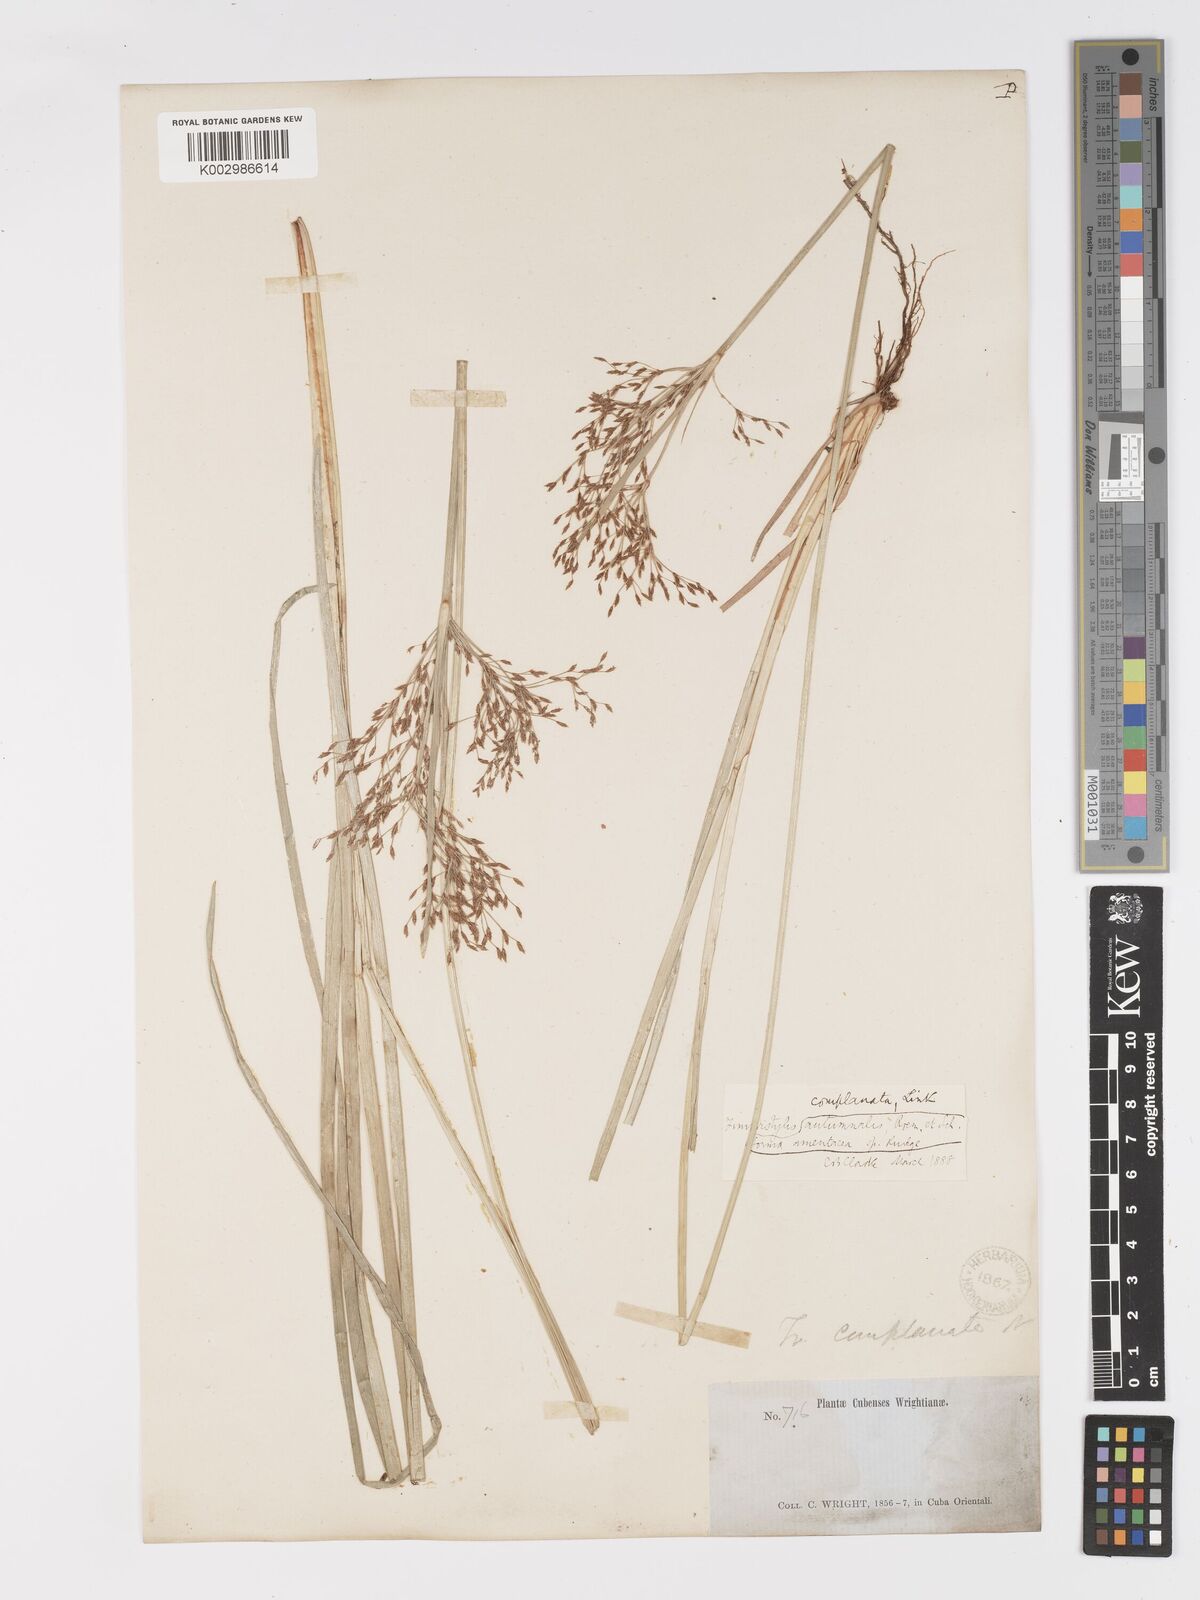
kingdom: Plantae
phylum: Tracheophyta
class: Liliopsida
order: Poales
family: Cyperaceae
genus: Fimbristylis
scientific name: Fimbristylis complanata
